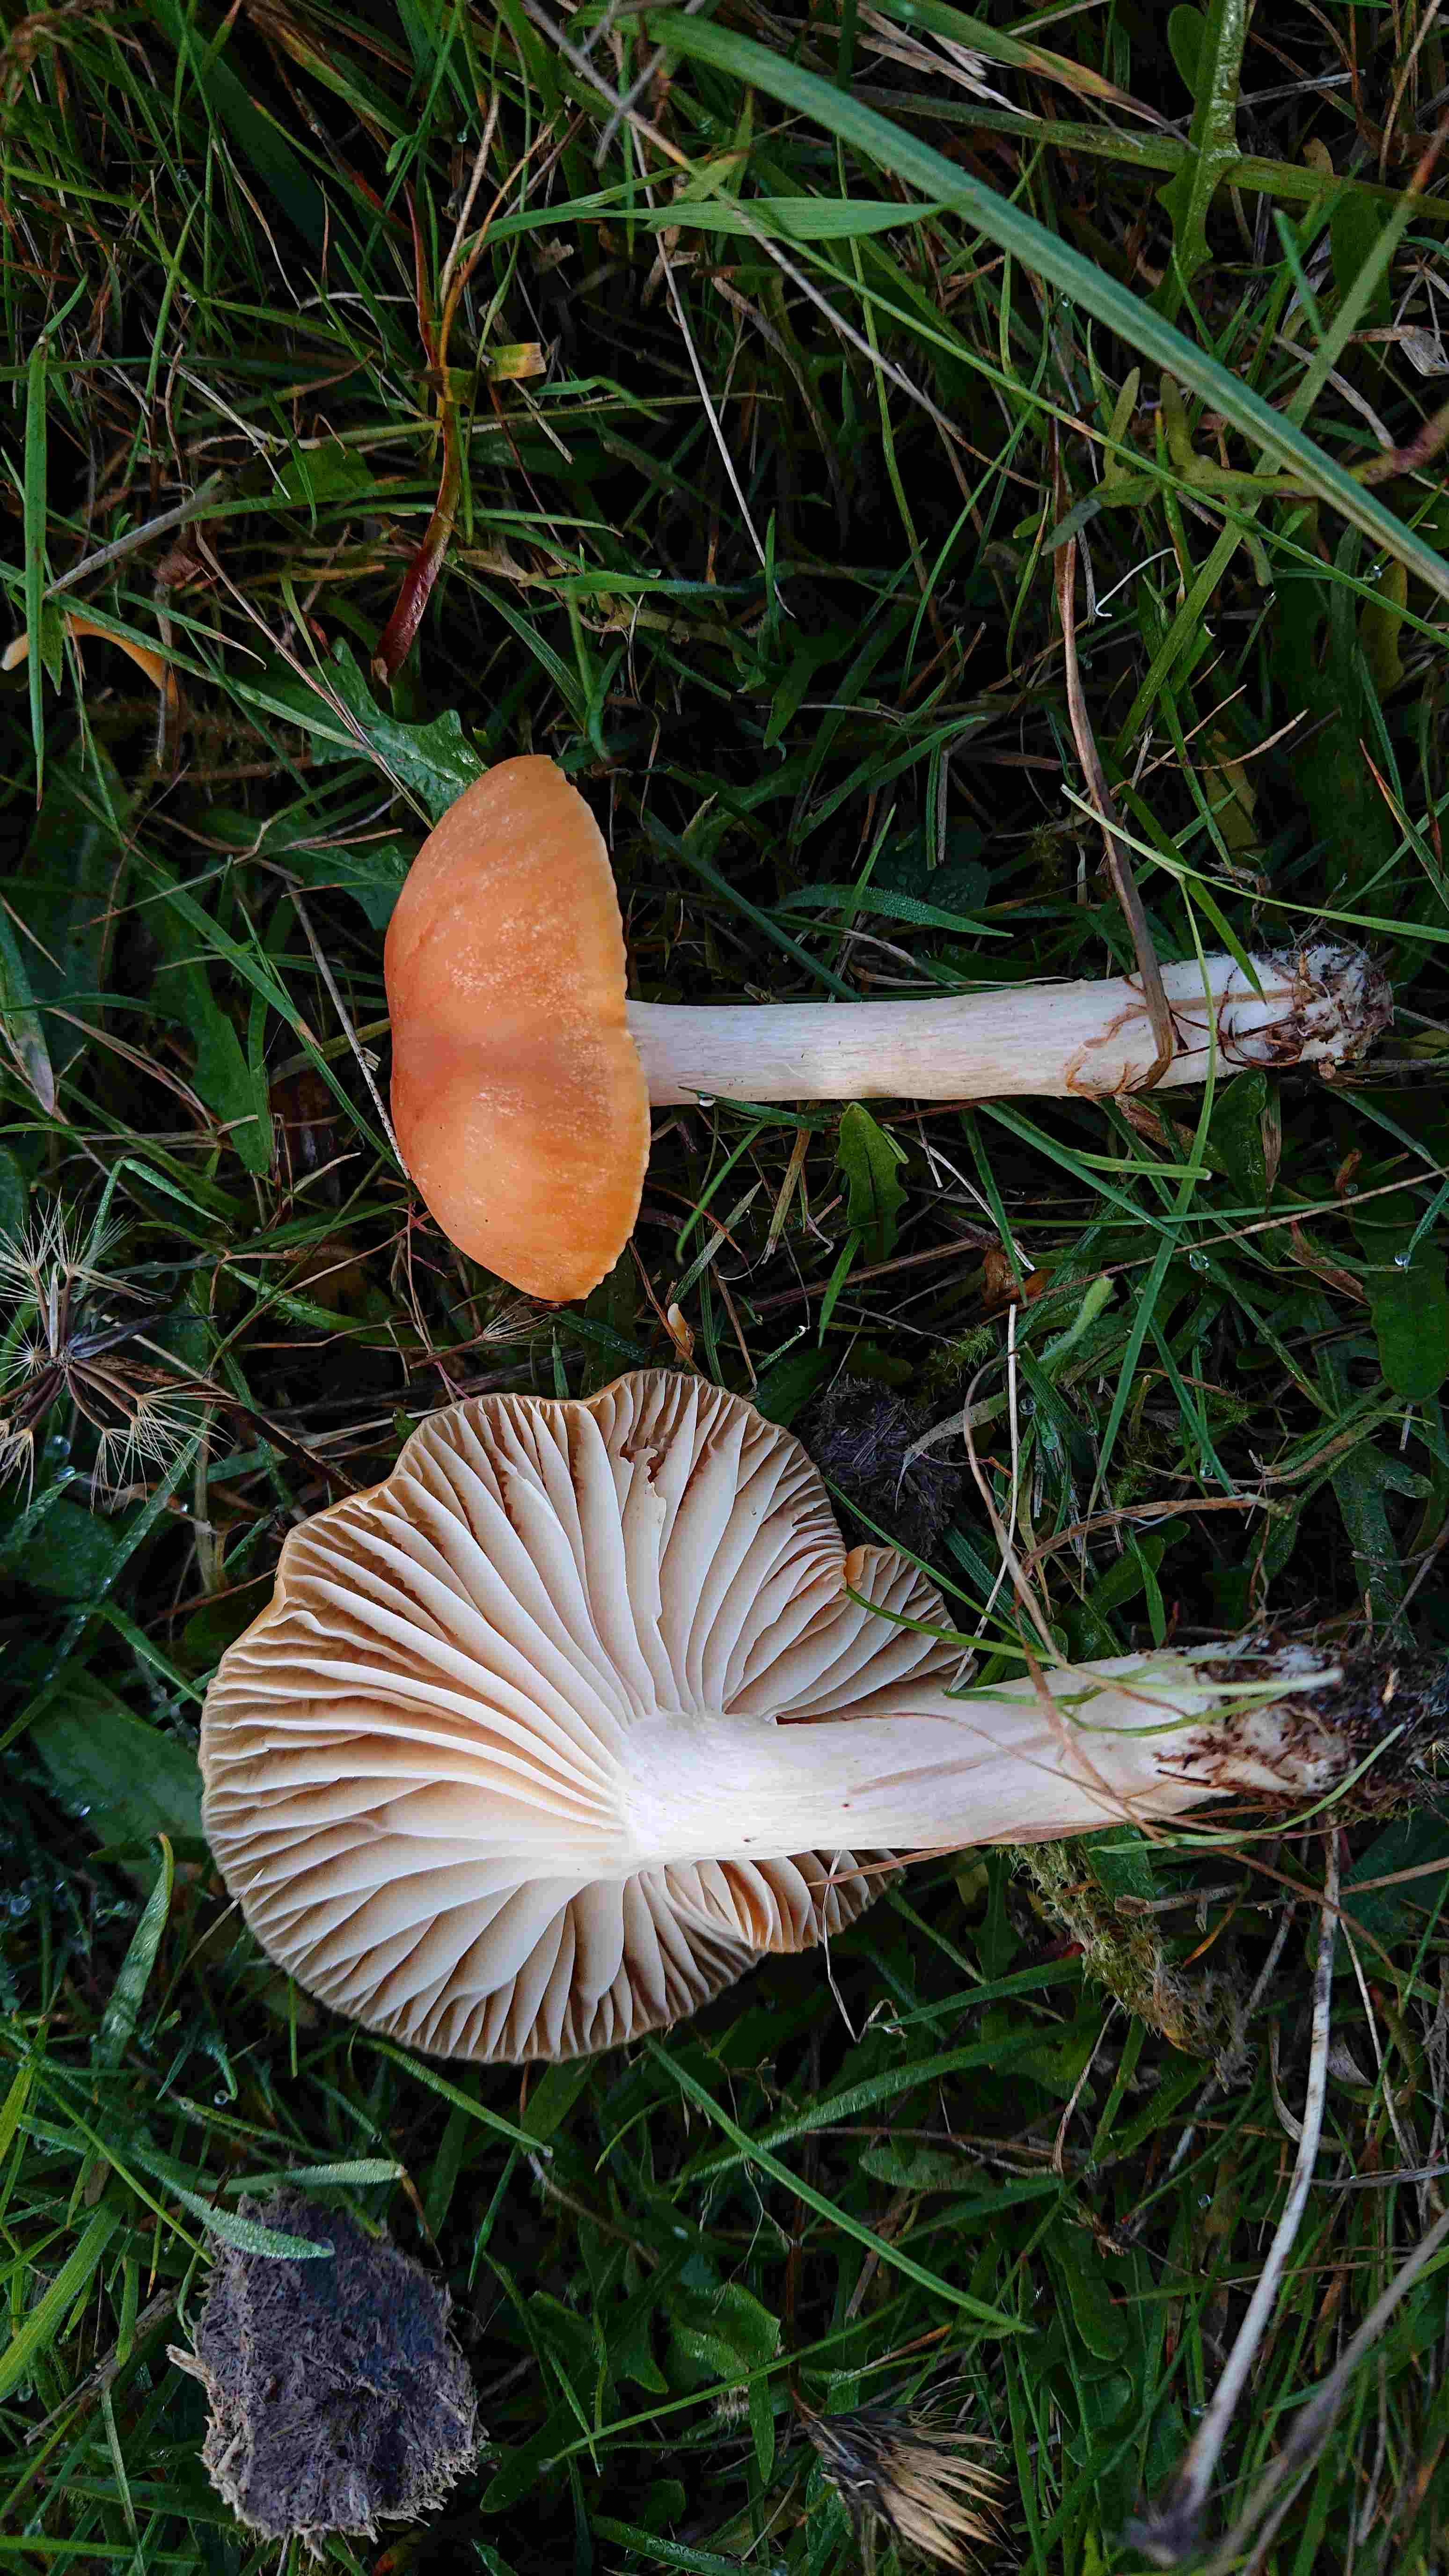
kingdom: Fungi
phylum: Basidiomycota
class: Agaricomycetes
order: Agaricales
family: Hygrophoraceae
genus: Cuphophyllus
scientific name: Cuphophyllus pratensis
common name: eng-vokshat
